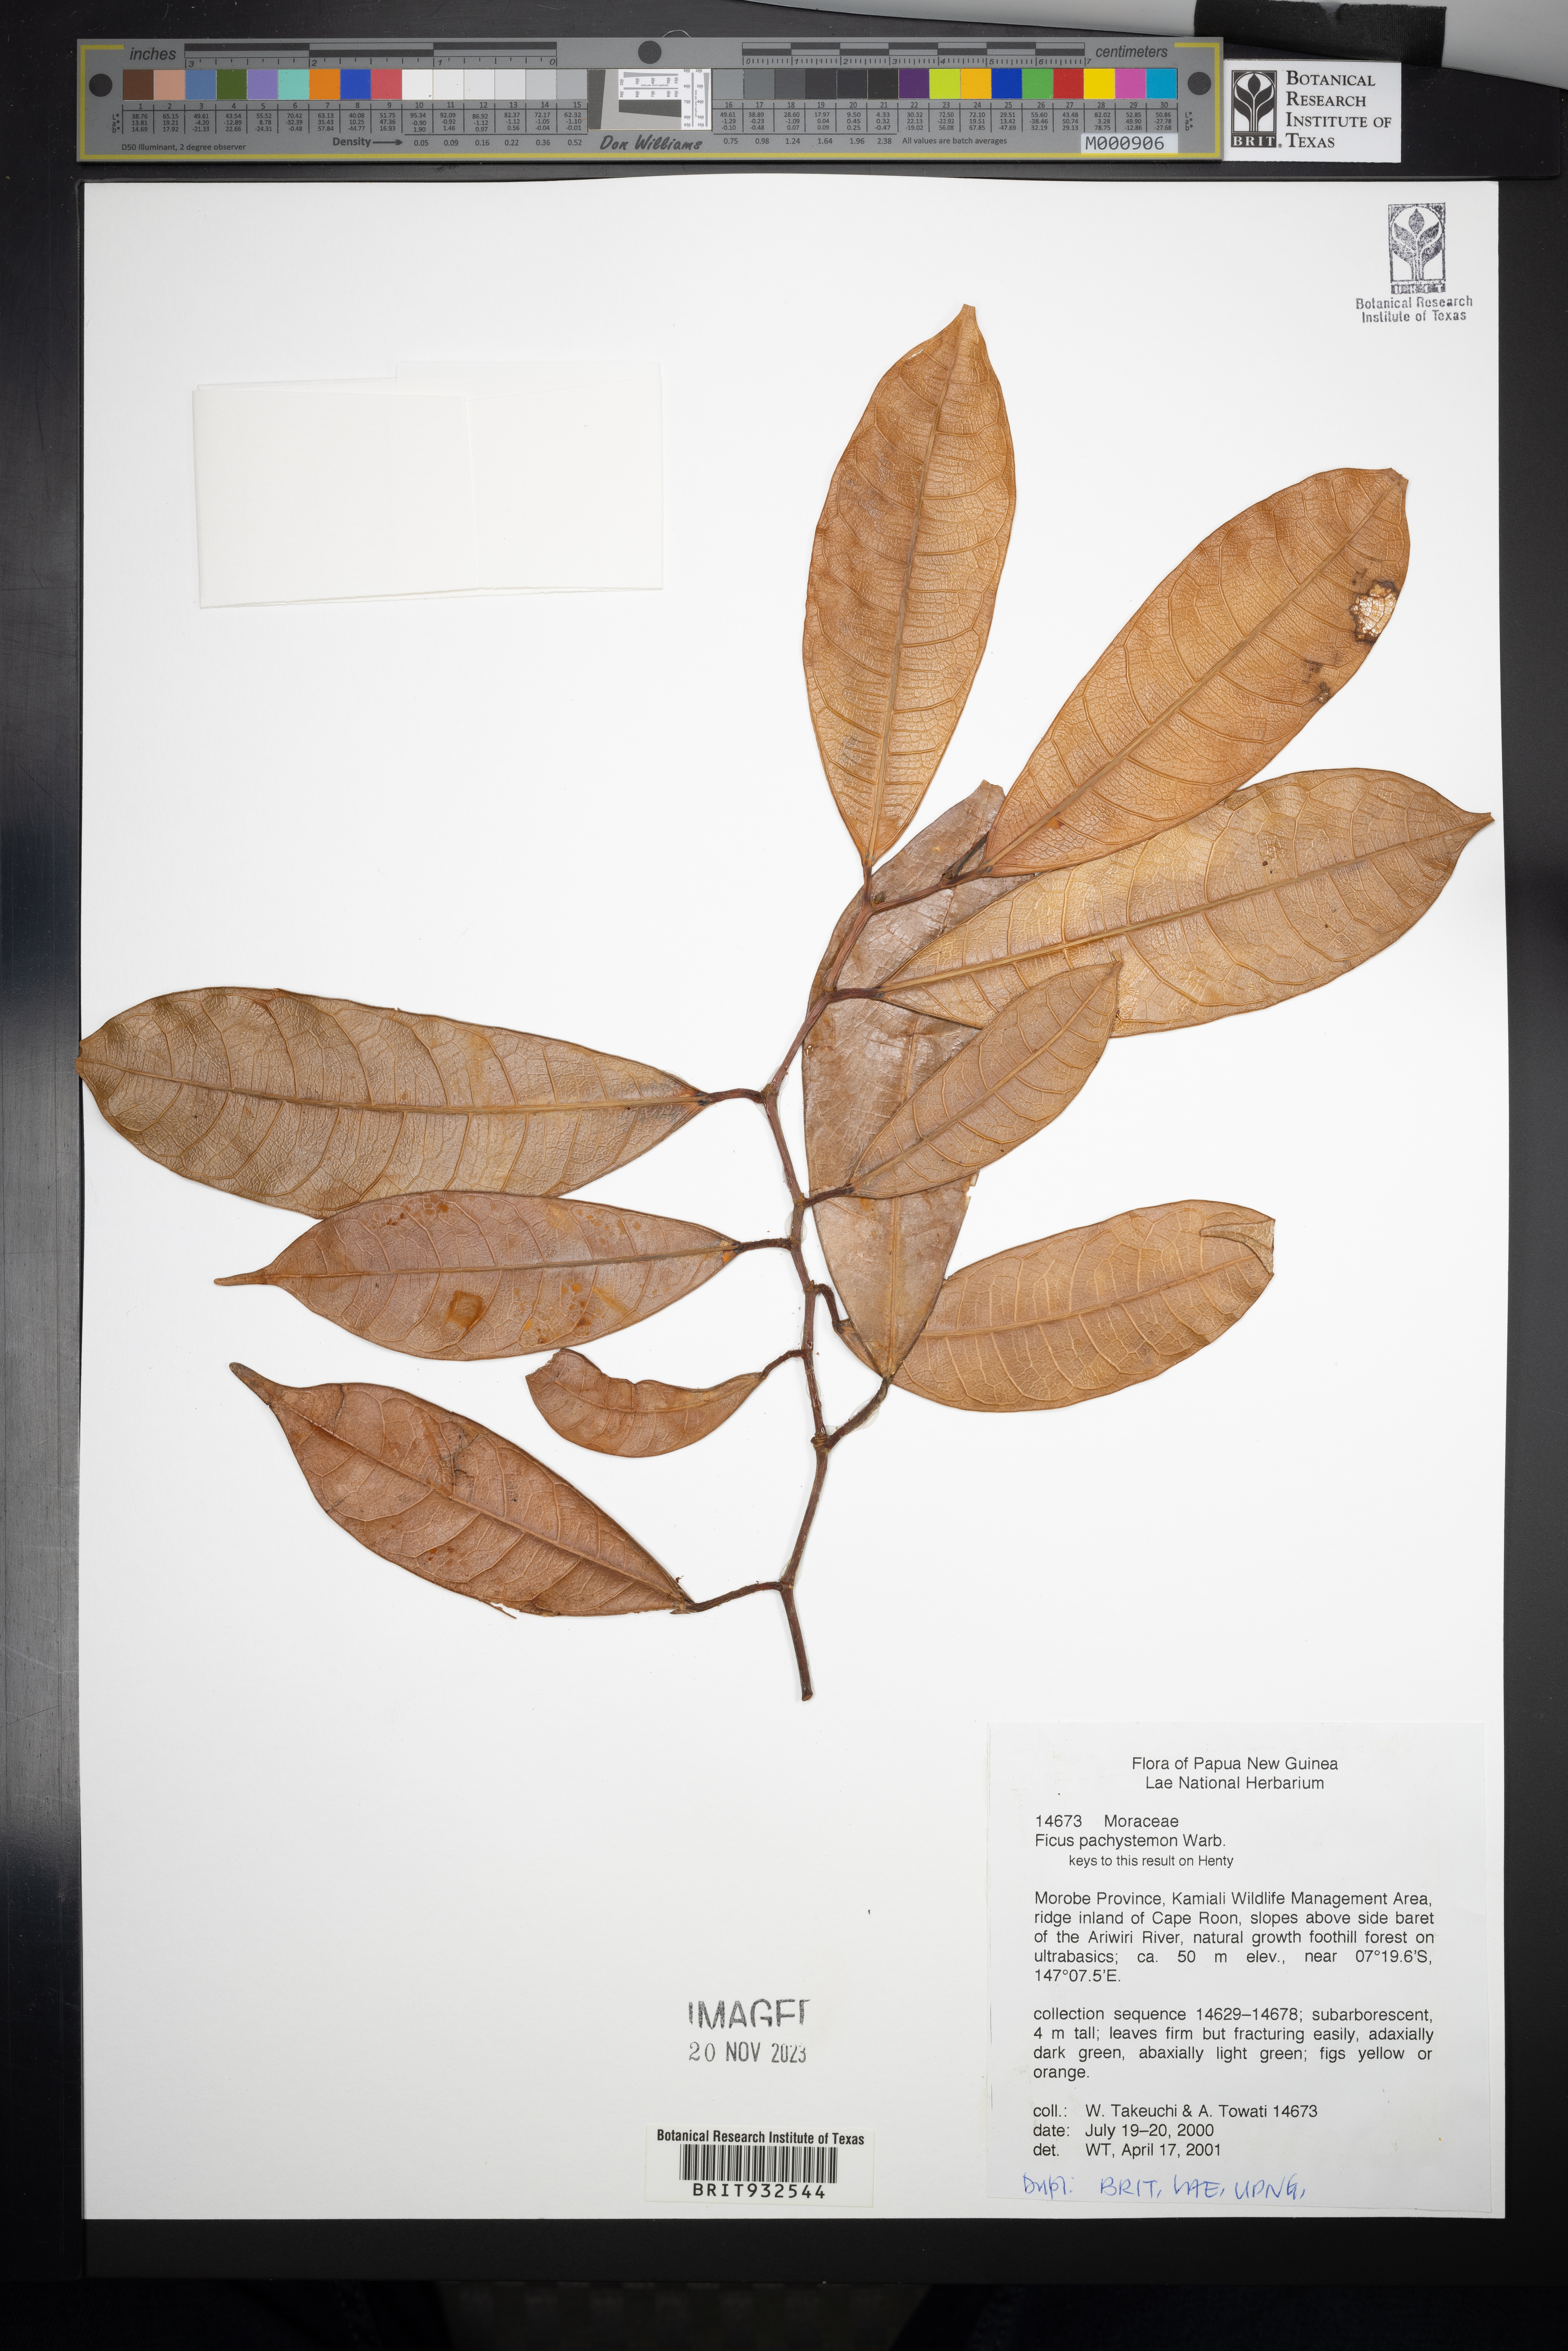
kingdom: Plantae
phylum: Tracheophyta
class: Magnoliopsida
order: Rosales
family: Moraceae
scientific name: Moraceae
